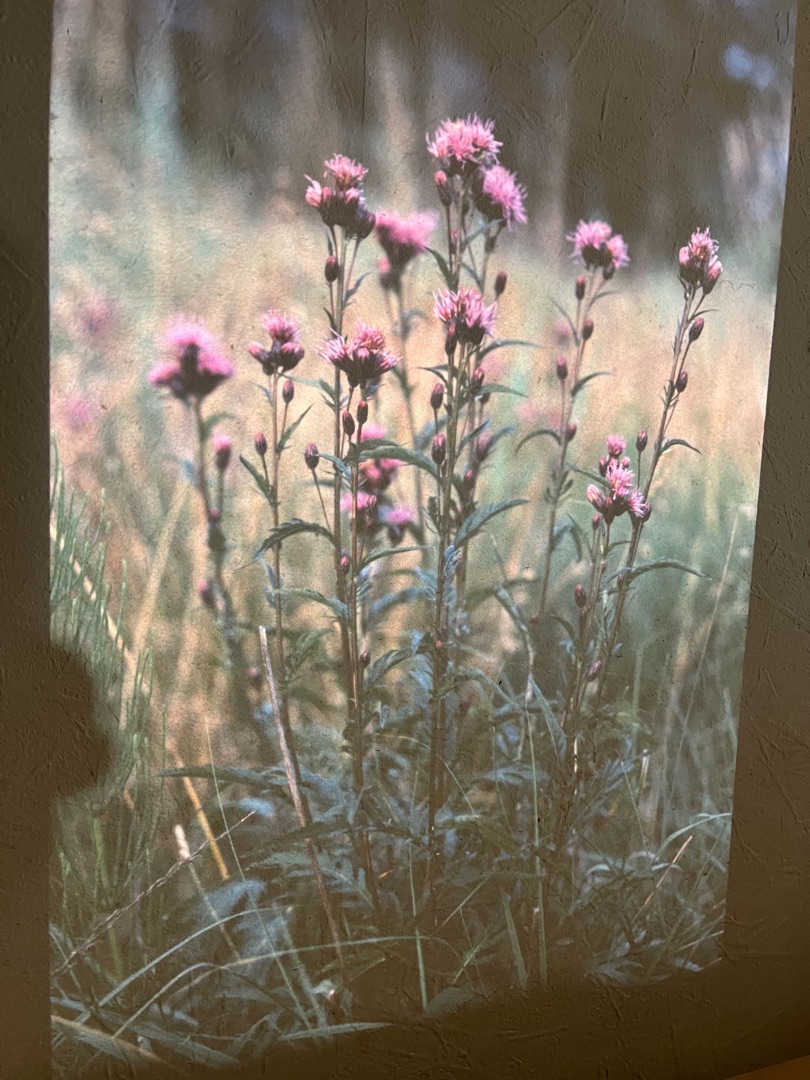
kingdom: Plantae
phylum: Tracheophyta
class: Magnoliopsida
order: Asterales
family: Asteraceae
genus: Serratula
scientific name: Serratula tinctoria
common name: Eng-skær
